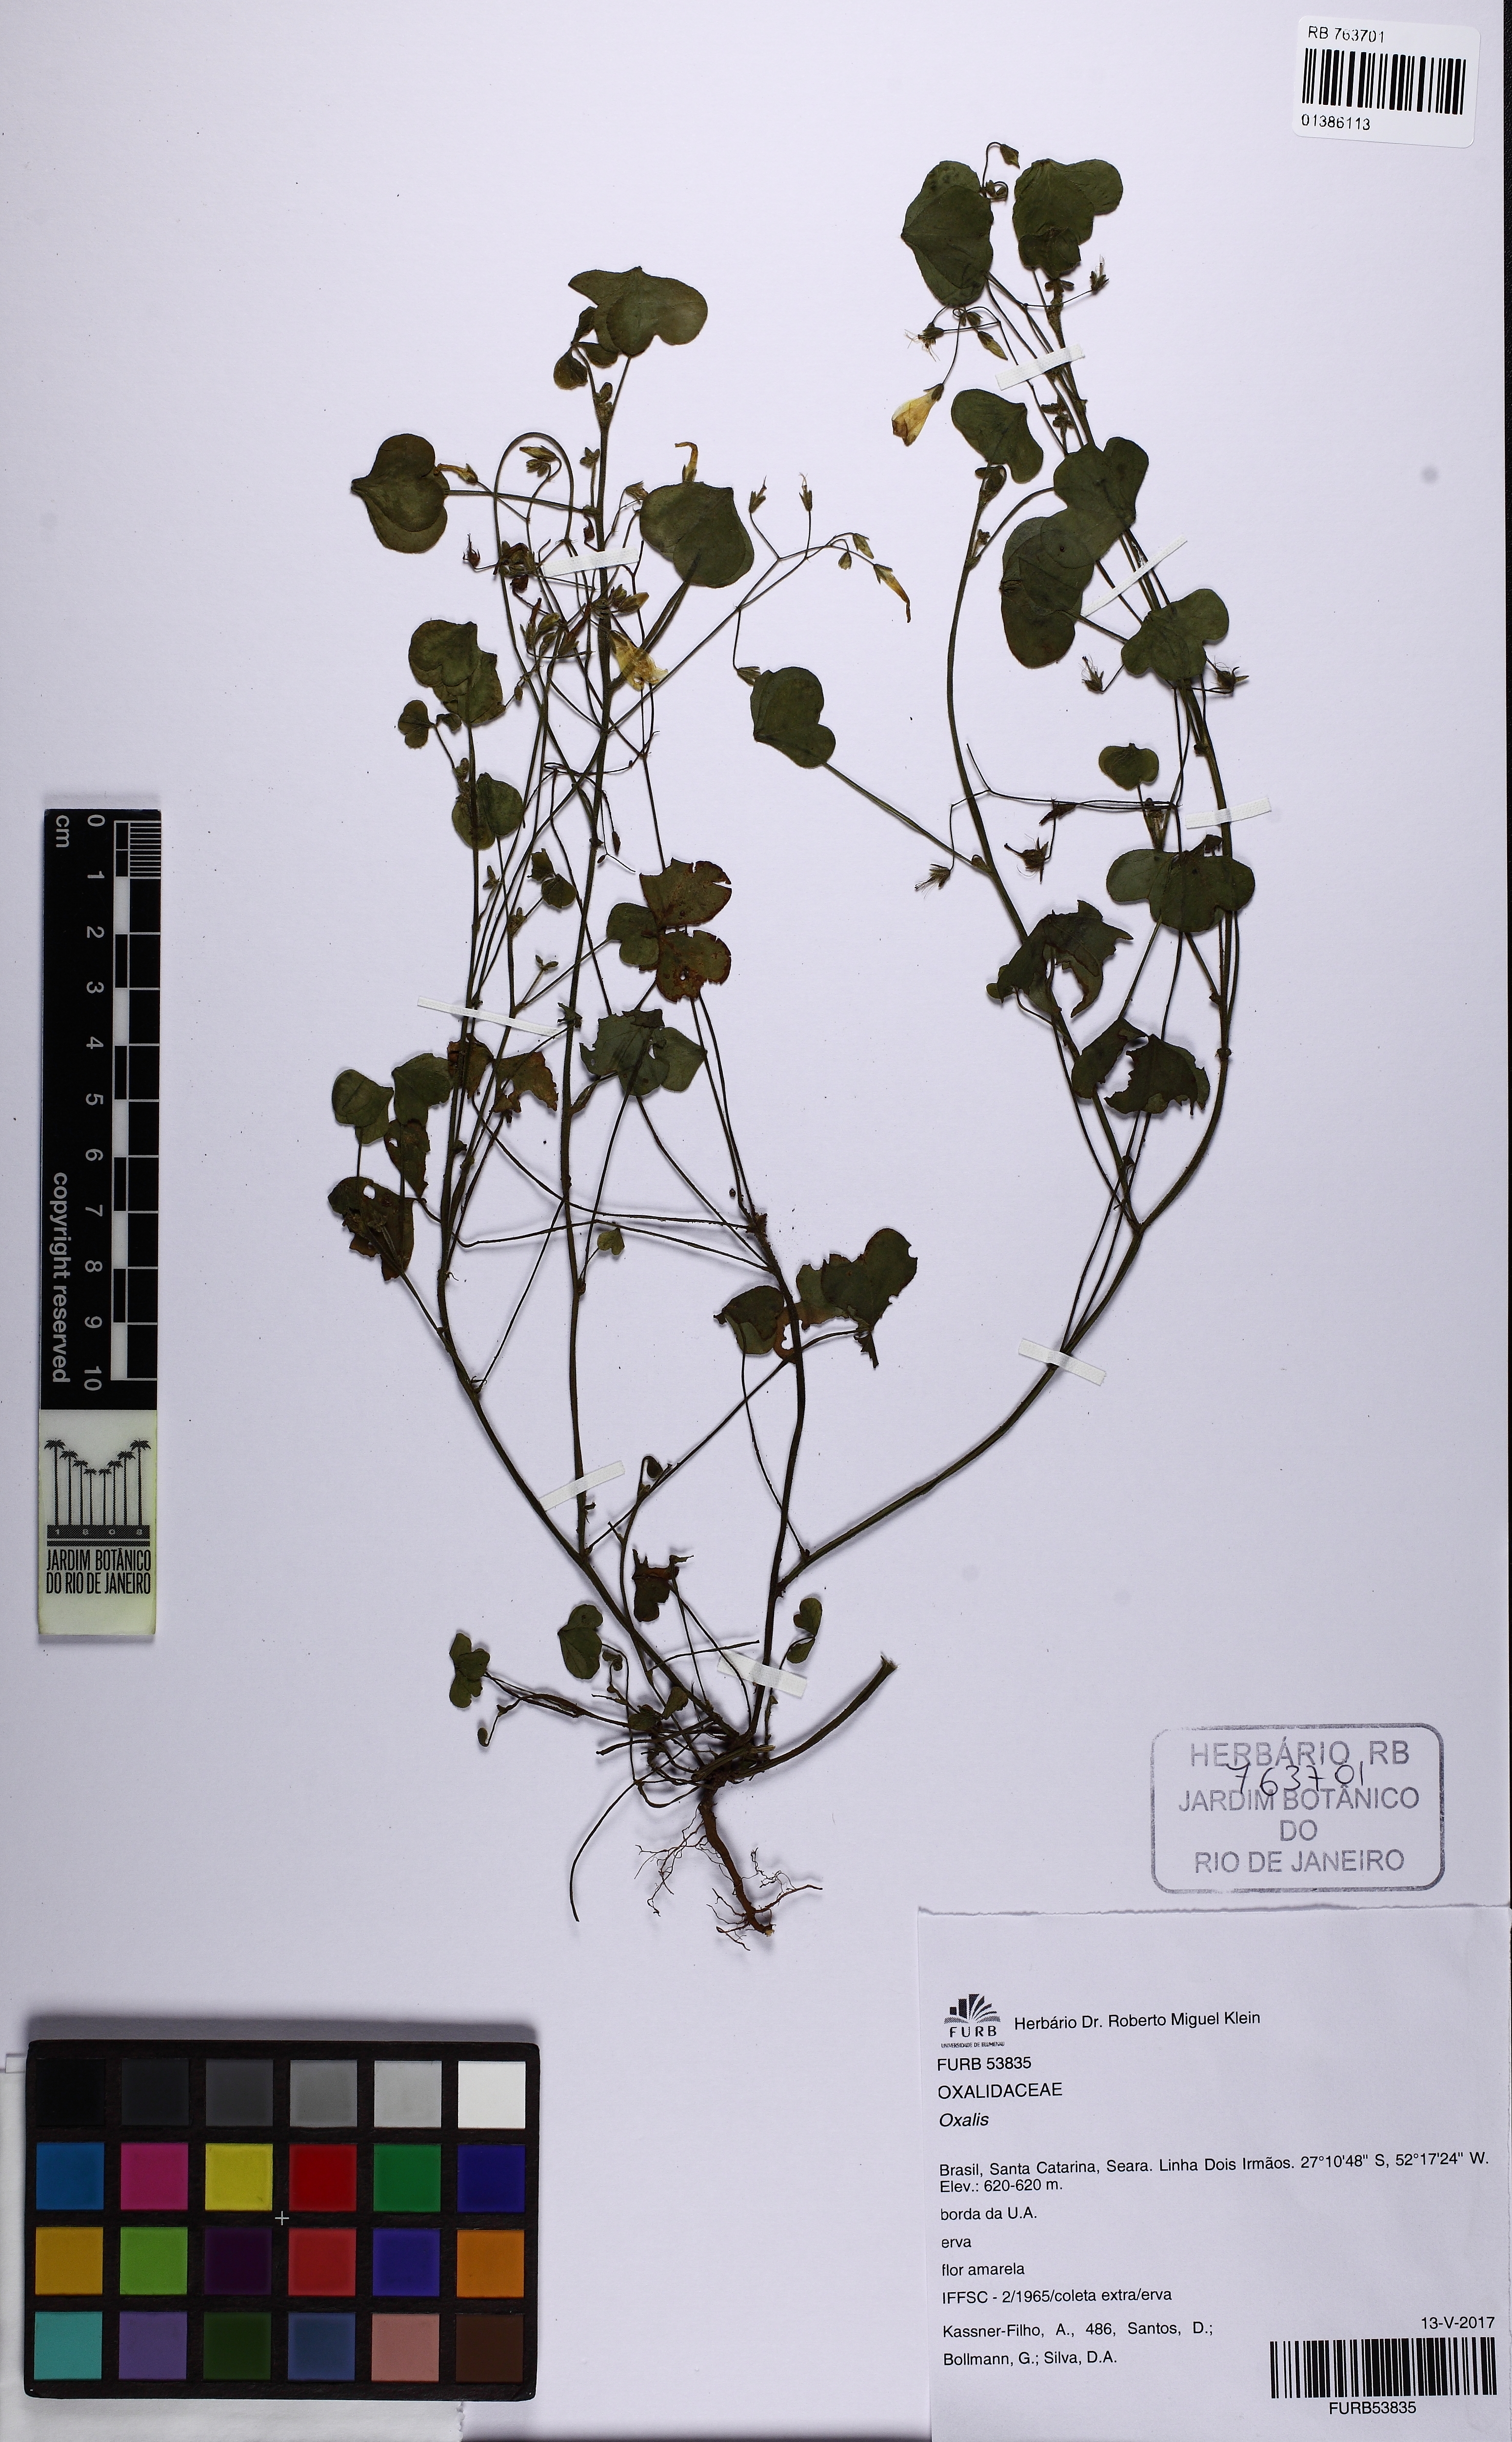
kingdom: Plantae
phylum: Tracheophyta
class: Magnoliopsida
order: Oxalidales
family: Oxalidaceae
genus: Oxalis
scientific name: Oxalis niederleinii
